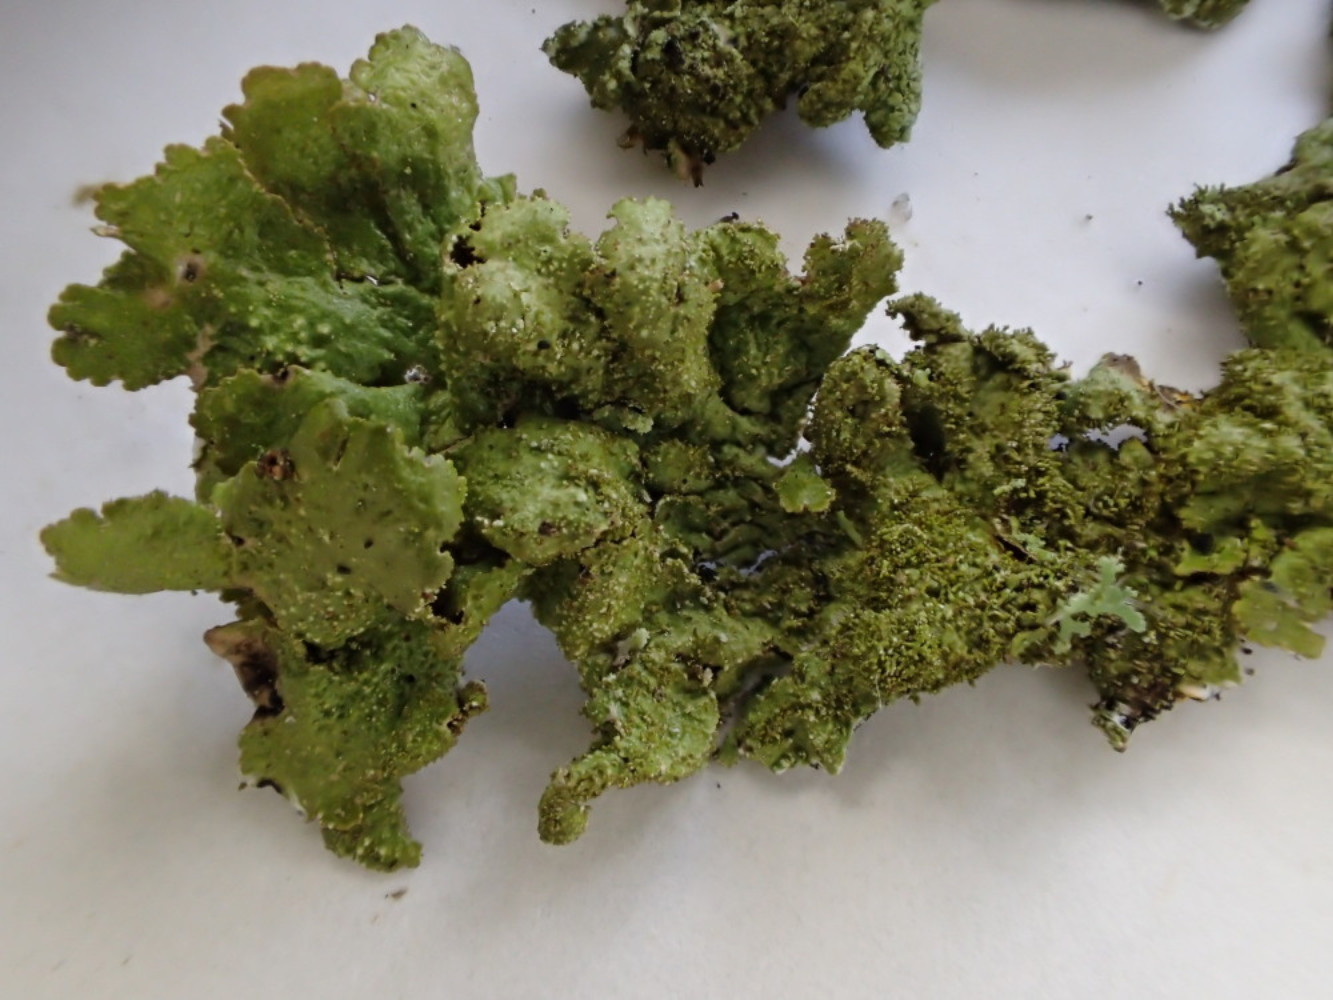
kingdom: Fungi
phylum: Ascomycota
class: Lecanoromycetes
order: Lecanorales
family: Parmeliaceae
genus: Melanelixia
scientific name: Melanelixia subaurifera
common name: guldpudret skållav
